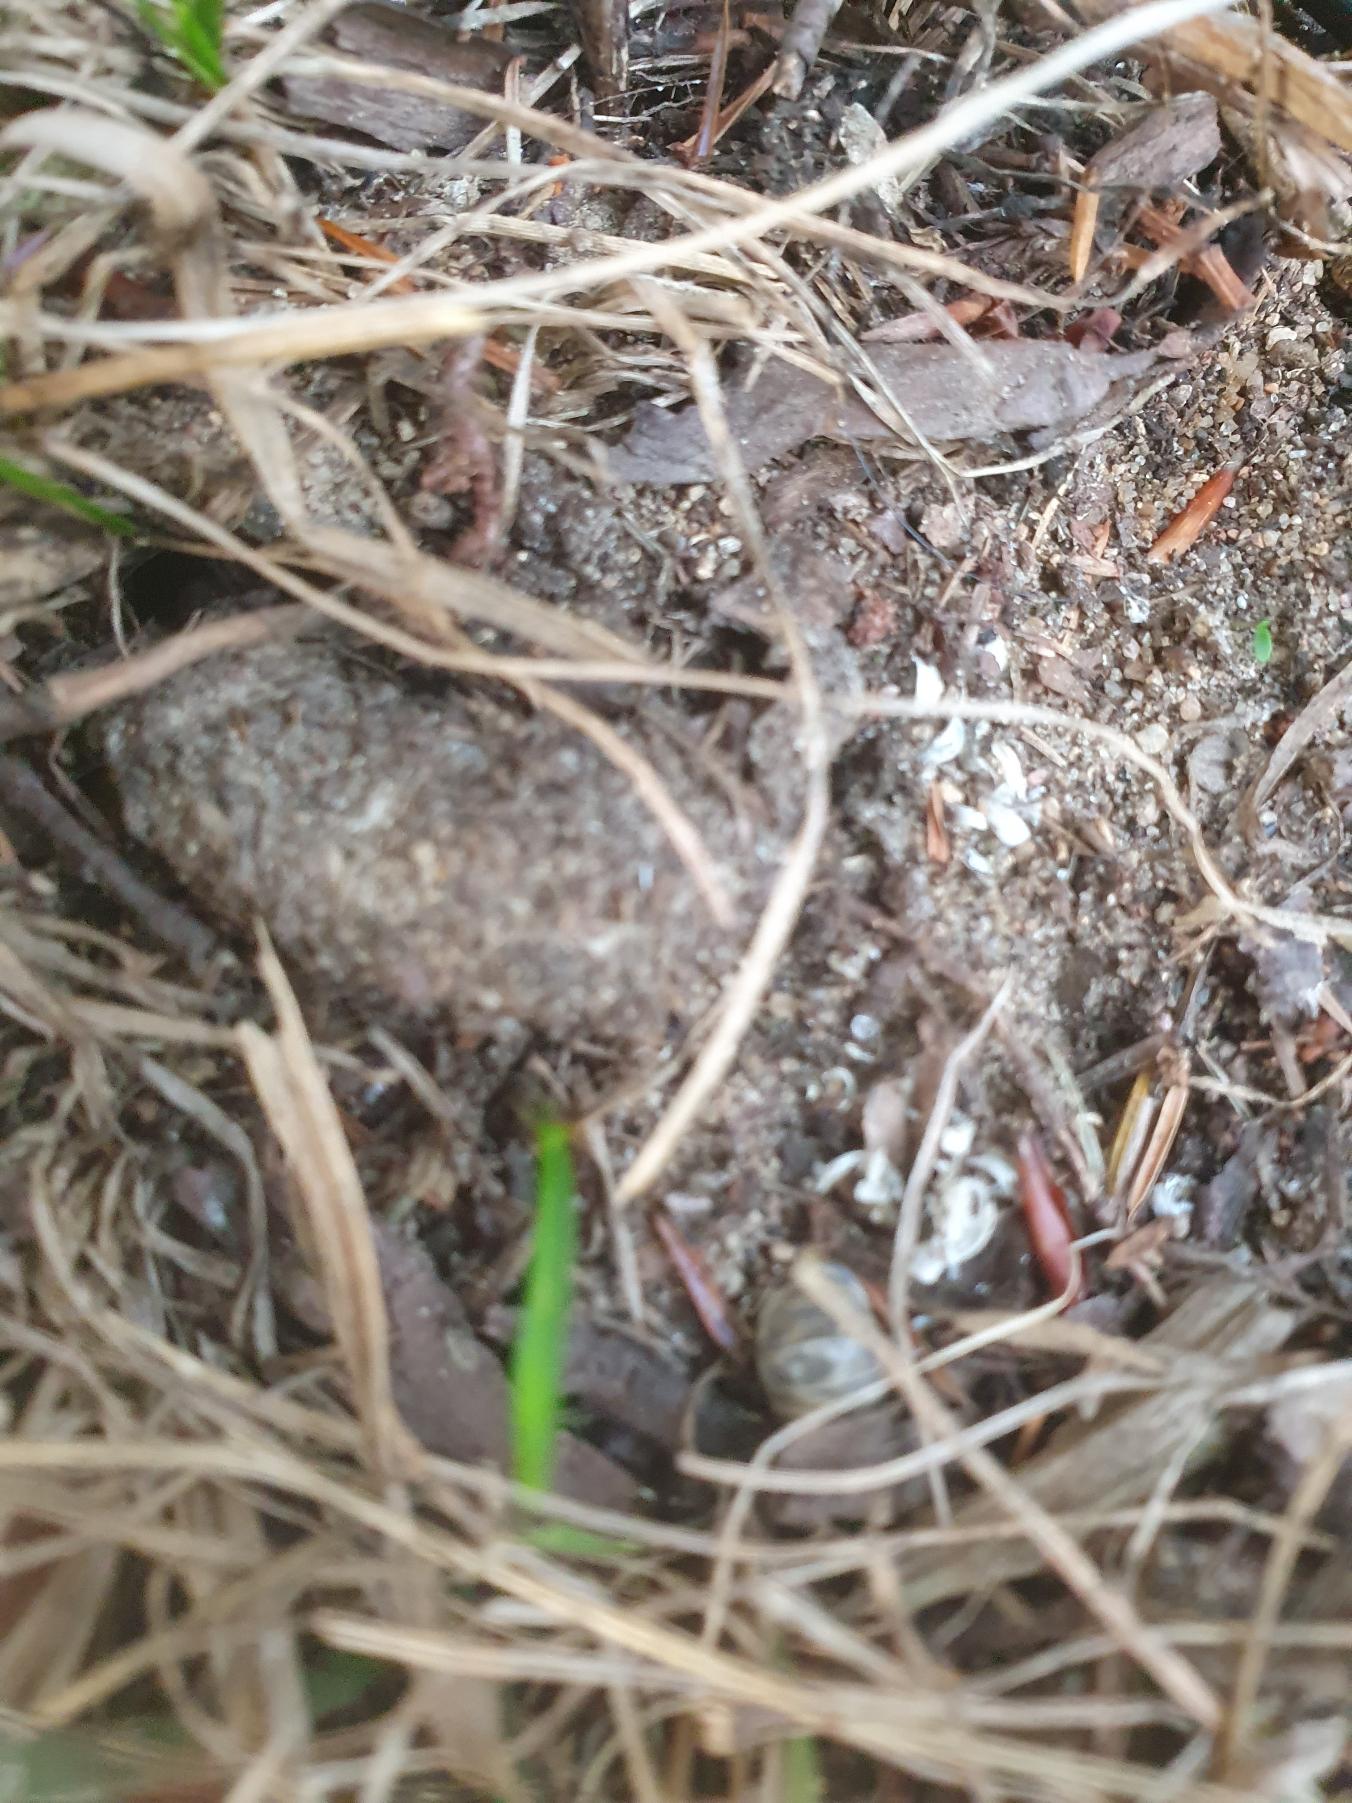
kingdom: Animalia
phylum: Arthropoda
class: Arachnida
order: Araneae
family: Atypidae
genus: Atypus
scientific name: Atypus affinis
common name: Nordlig fugleedderkop
